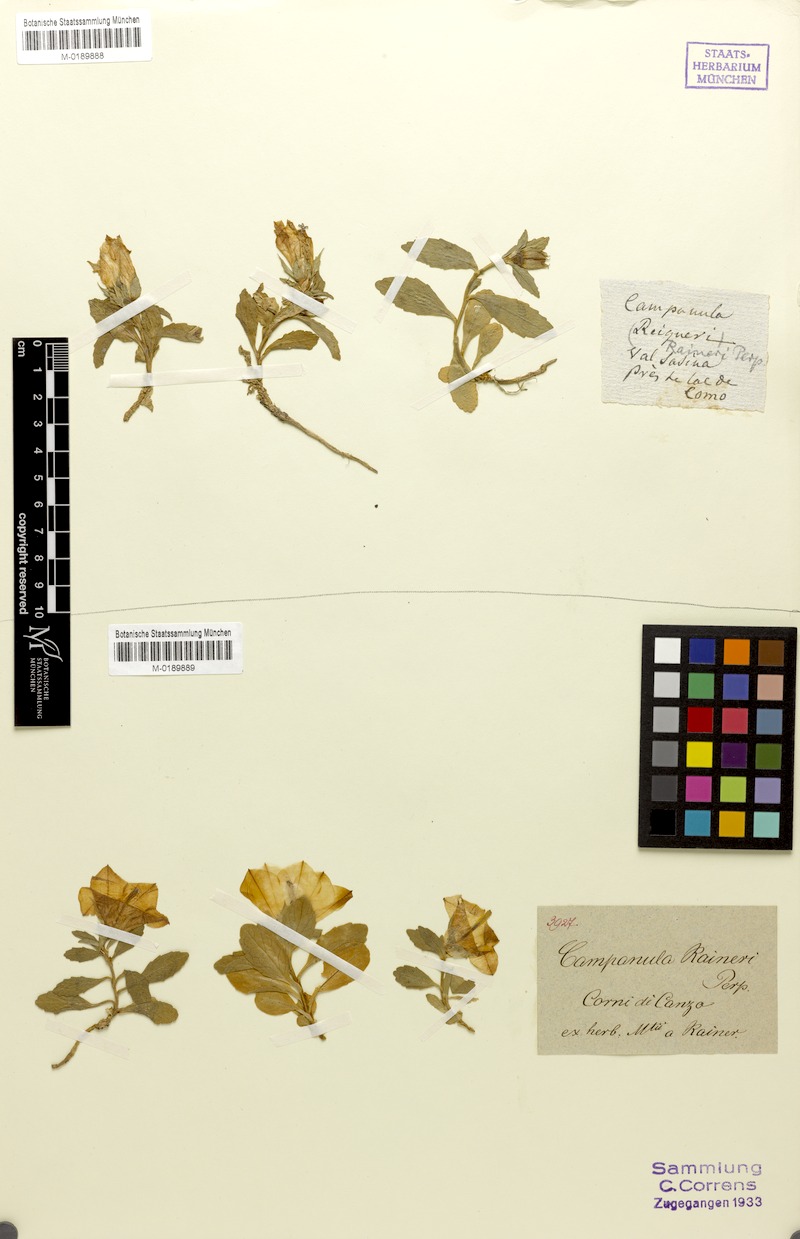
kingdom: Plantae
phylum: Tracheophyta
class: Magnoliopsida
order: Asterales
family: Campanulaceae
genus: Campanula
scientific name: Campanula raineri
